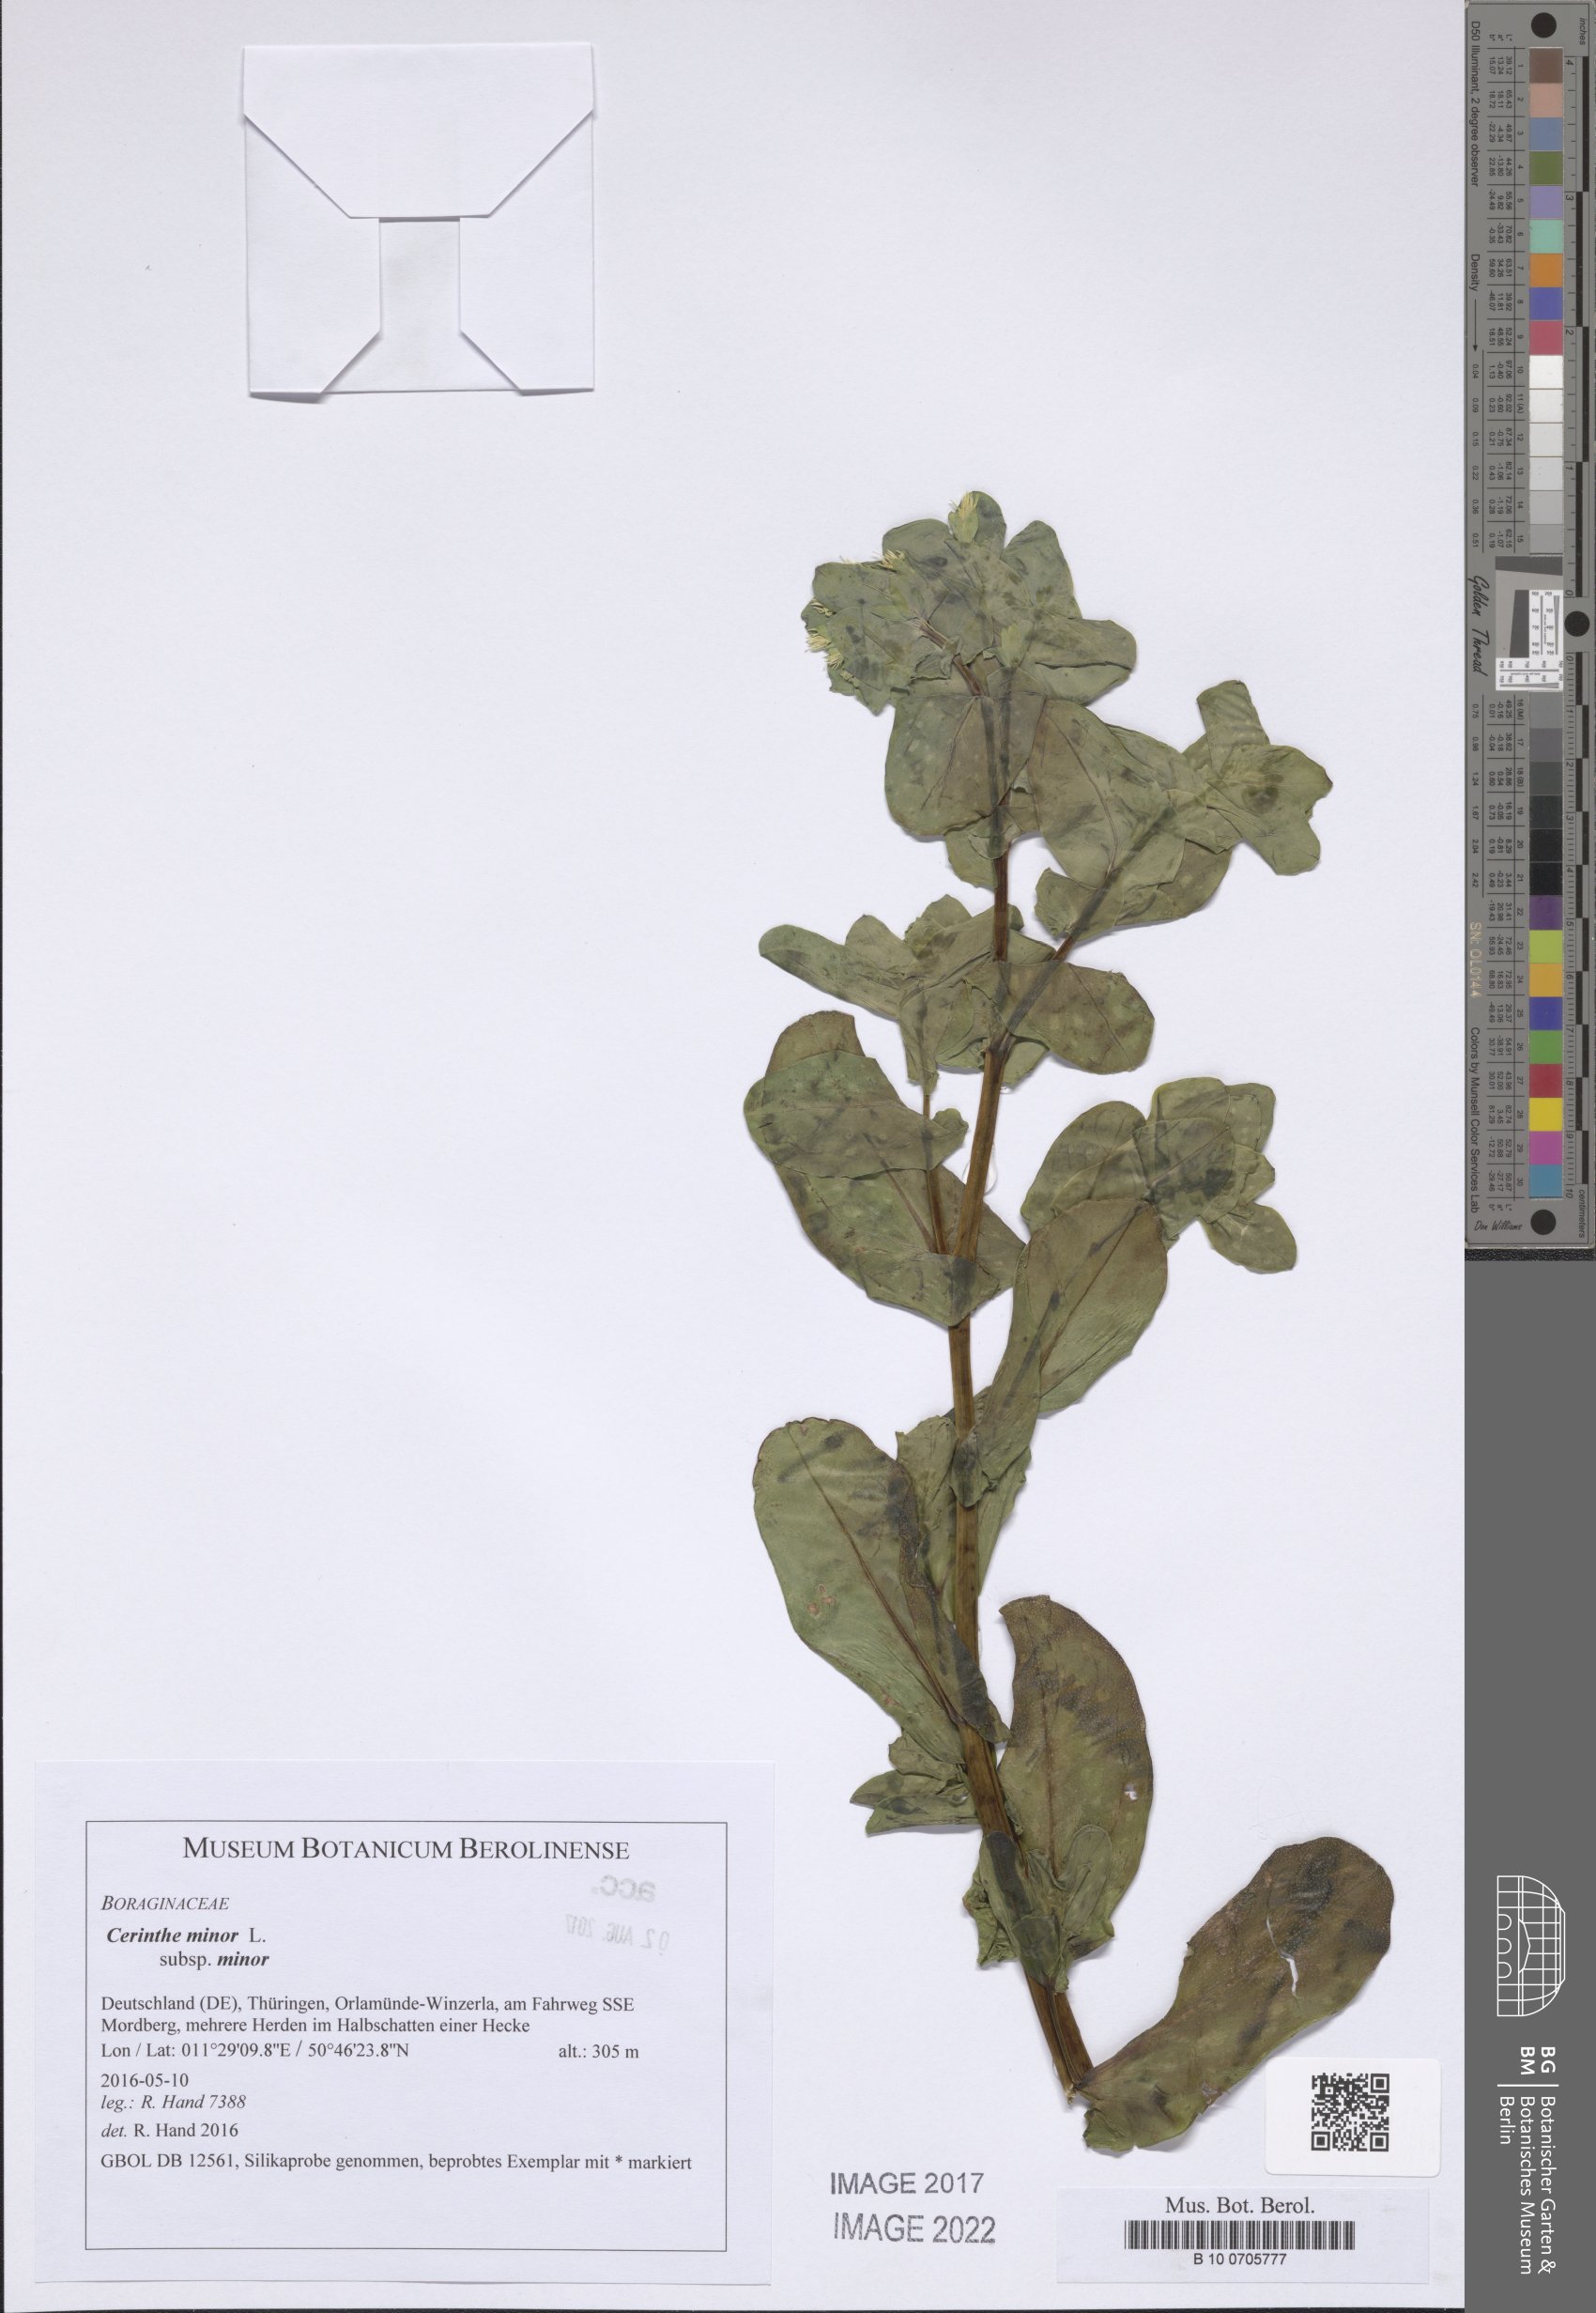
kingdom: Plantae
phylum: Tracheophyta
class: Magnoliopsida
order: Boraginales
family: Boraginaceae
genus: Cerinthe
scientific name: Cerinthe minor
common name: Lesser honeywort
